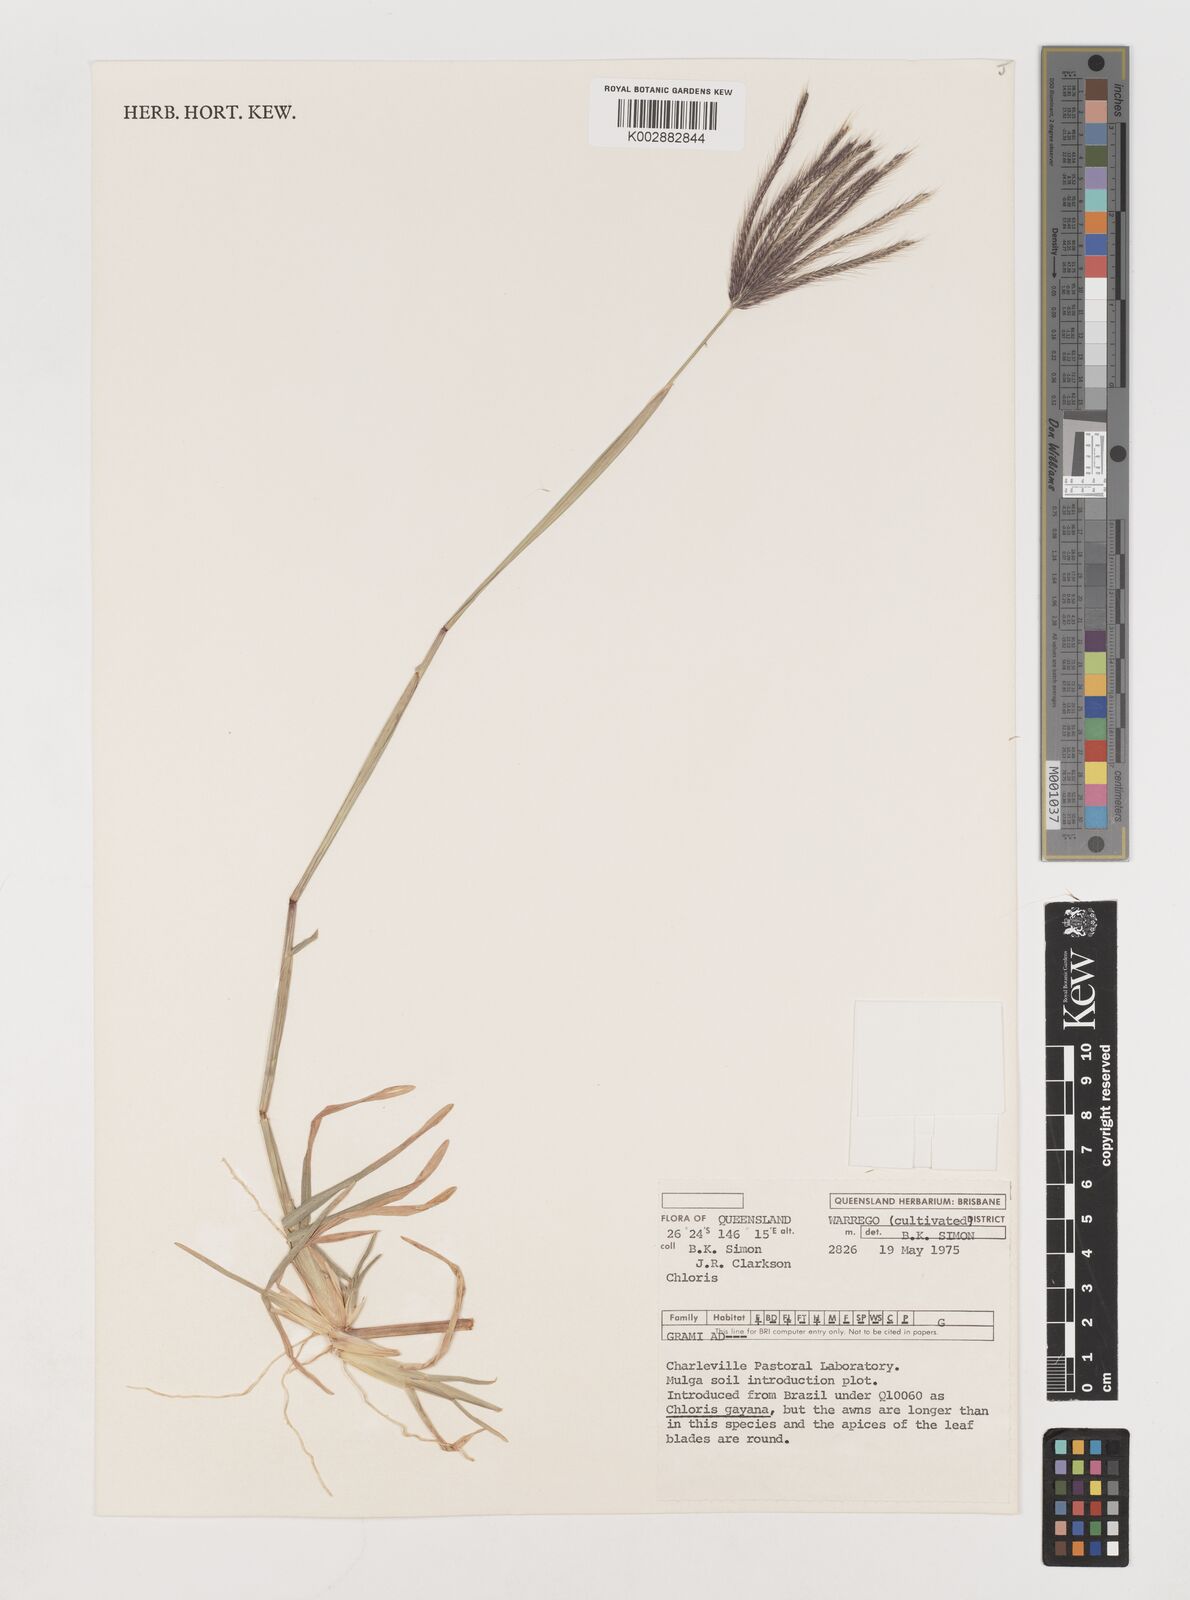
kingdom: Plantae
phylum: Tracheophyta
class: Liliopsida
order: Poales
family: Poaceae
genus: Chloris
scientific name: Chloris
